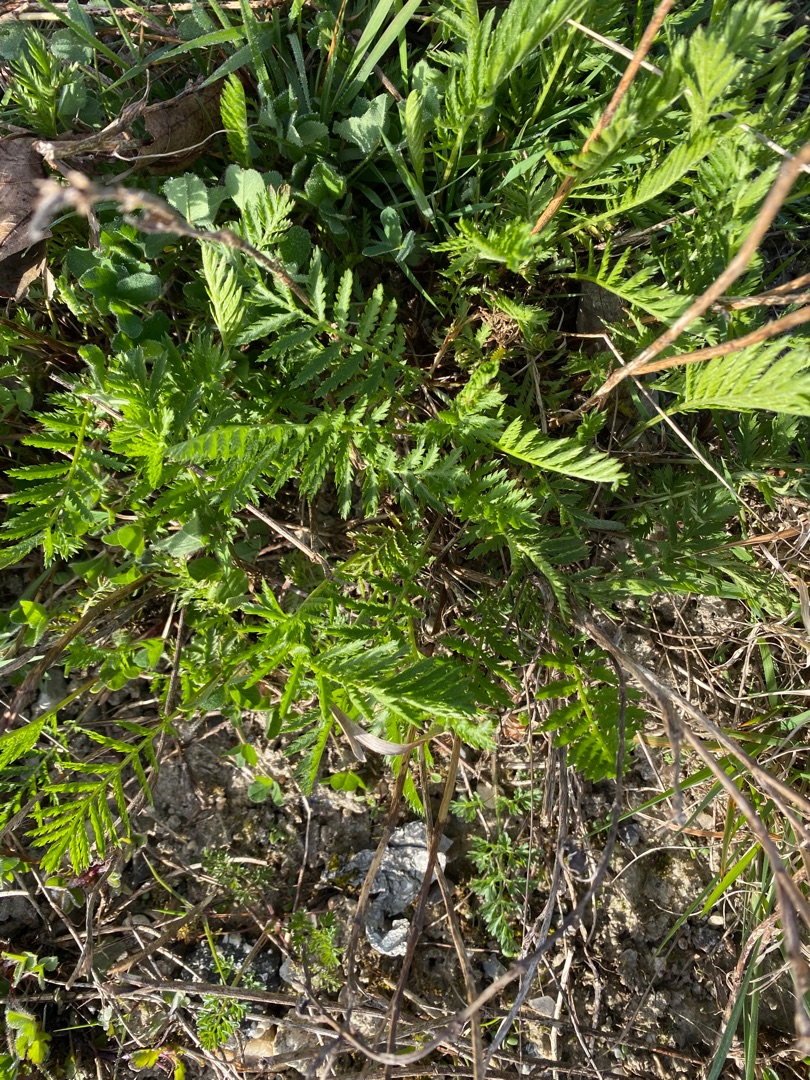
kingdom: Plantae
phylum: Tracheophyta
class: Magnoliopsida
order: Asterales
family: Asteraceae
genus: Tanacetum
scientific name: Tanacetum vulgare
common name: Rejnfan
